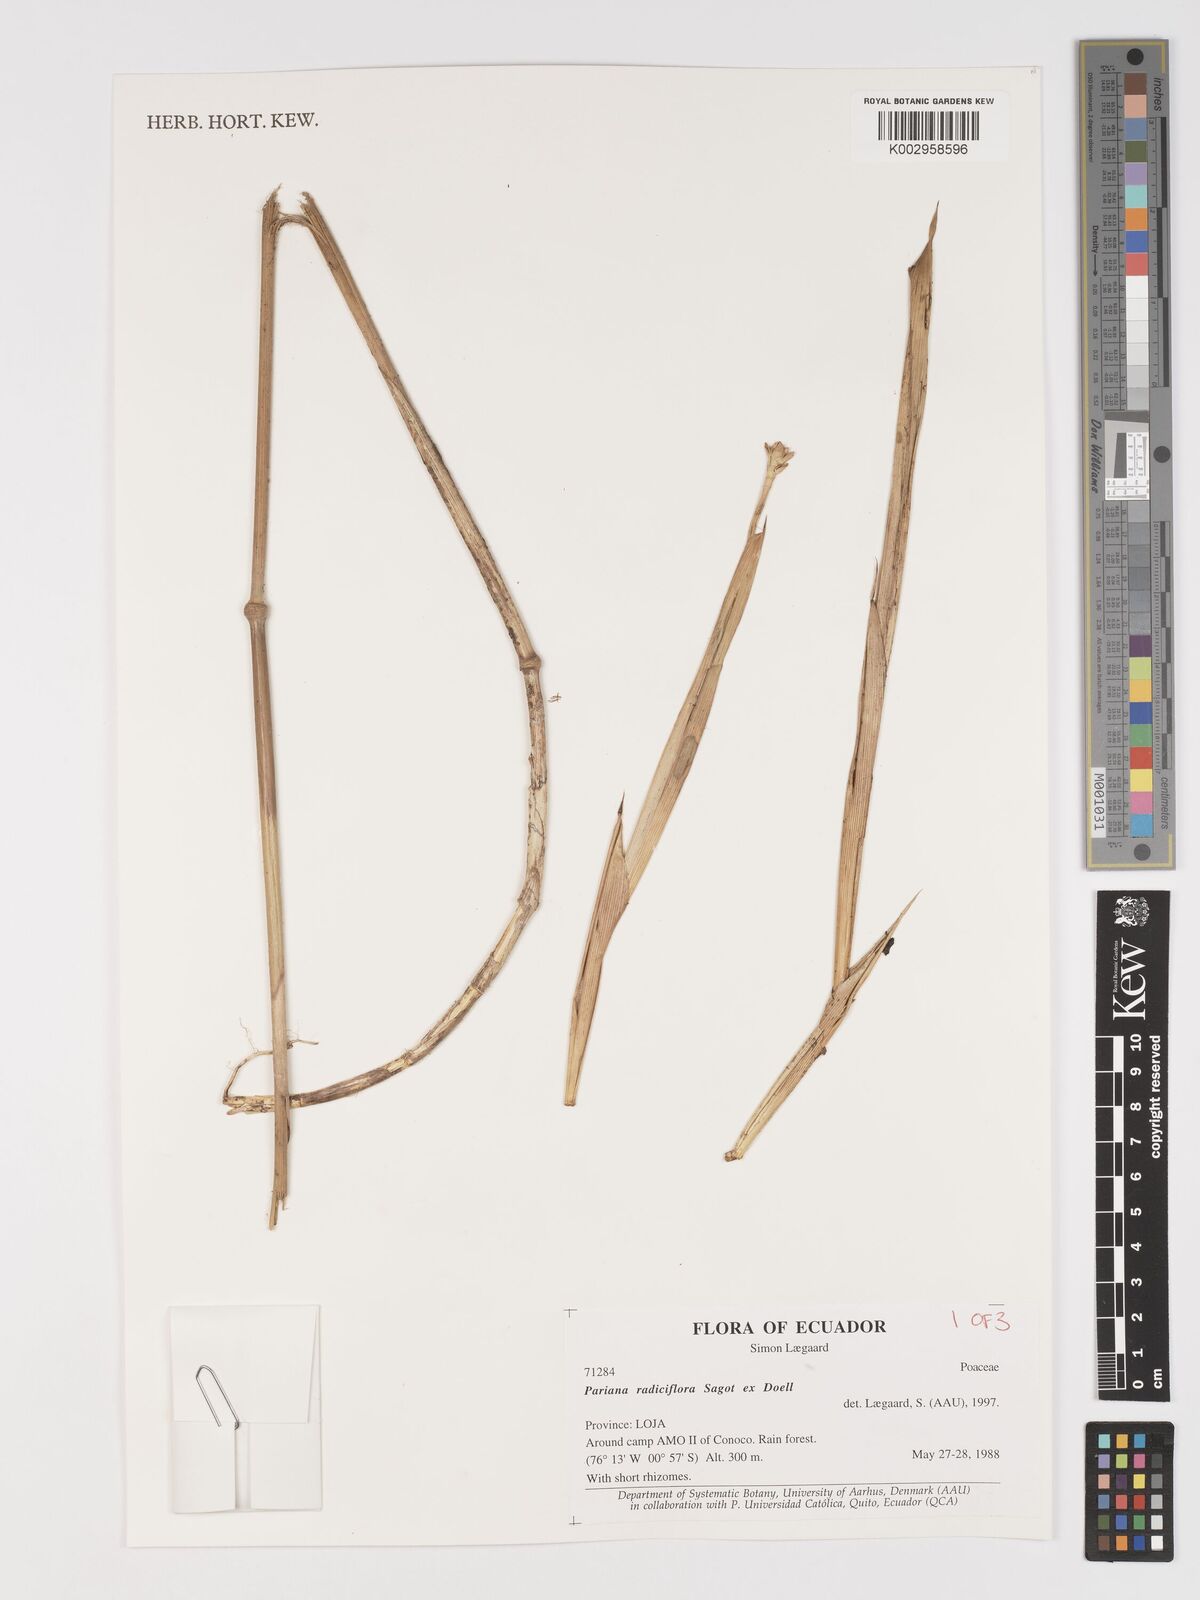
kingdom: Plantae
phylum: Tracheophyta
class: Liliopsida
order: Poales
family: Poaceae
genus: Pariana
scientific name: Pariana radiciflora
